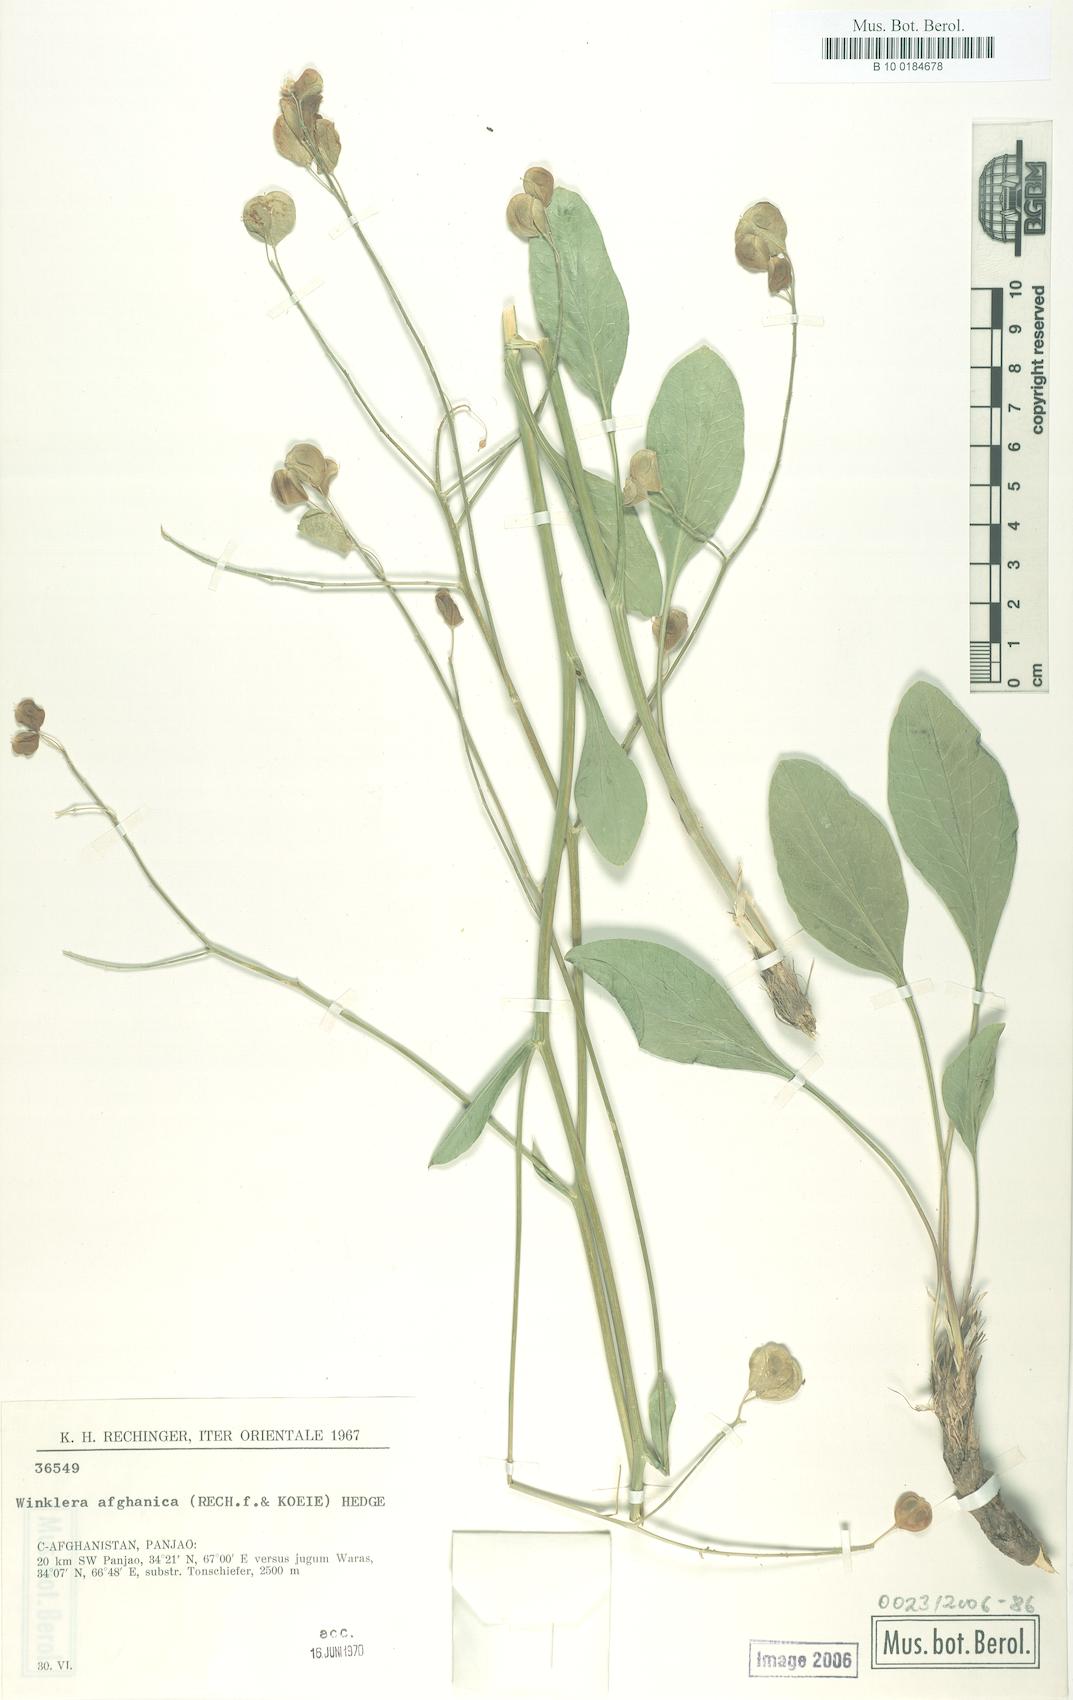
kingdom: Plantae
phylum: Tracheophyta
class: Magnoliopsida
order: Brassicales
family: Brassicaceae
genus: Lepidium
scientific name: Lepidium afghanicum
